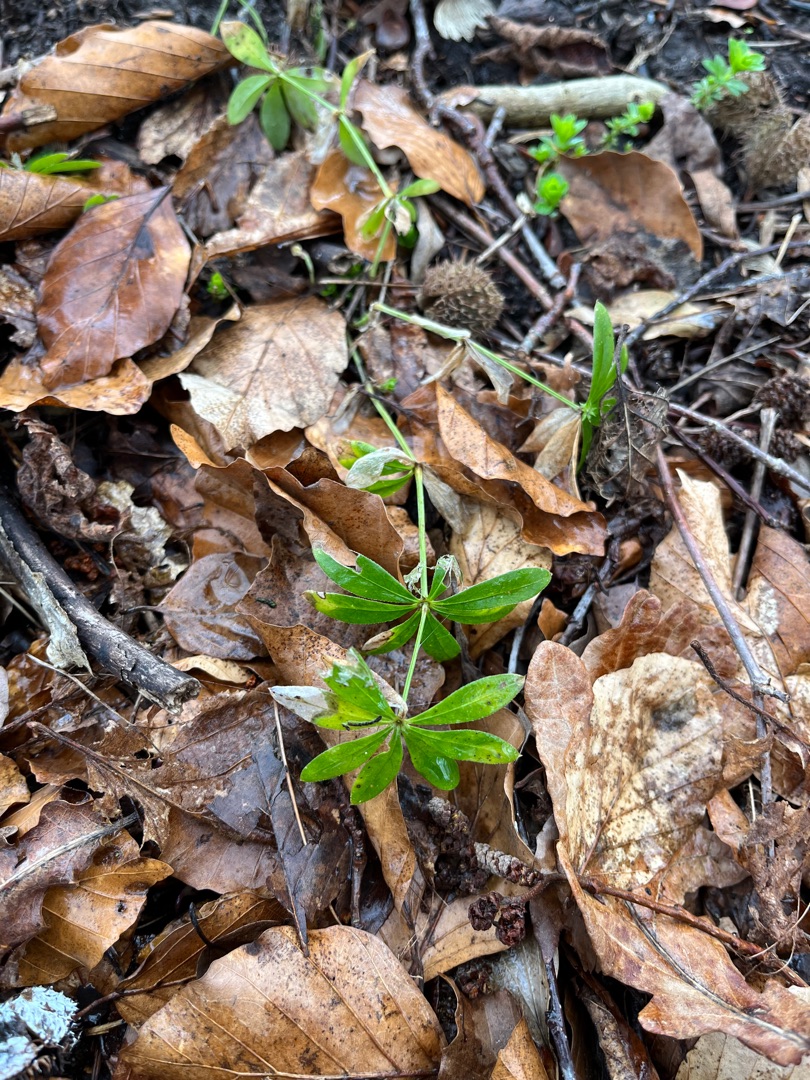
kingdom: Plantae
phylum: Tracheophyta
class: Magnoliopsida
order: Gentianales
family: Rubiaceae
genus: Galium
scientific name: Galium odoratum
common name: Skovmærke
